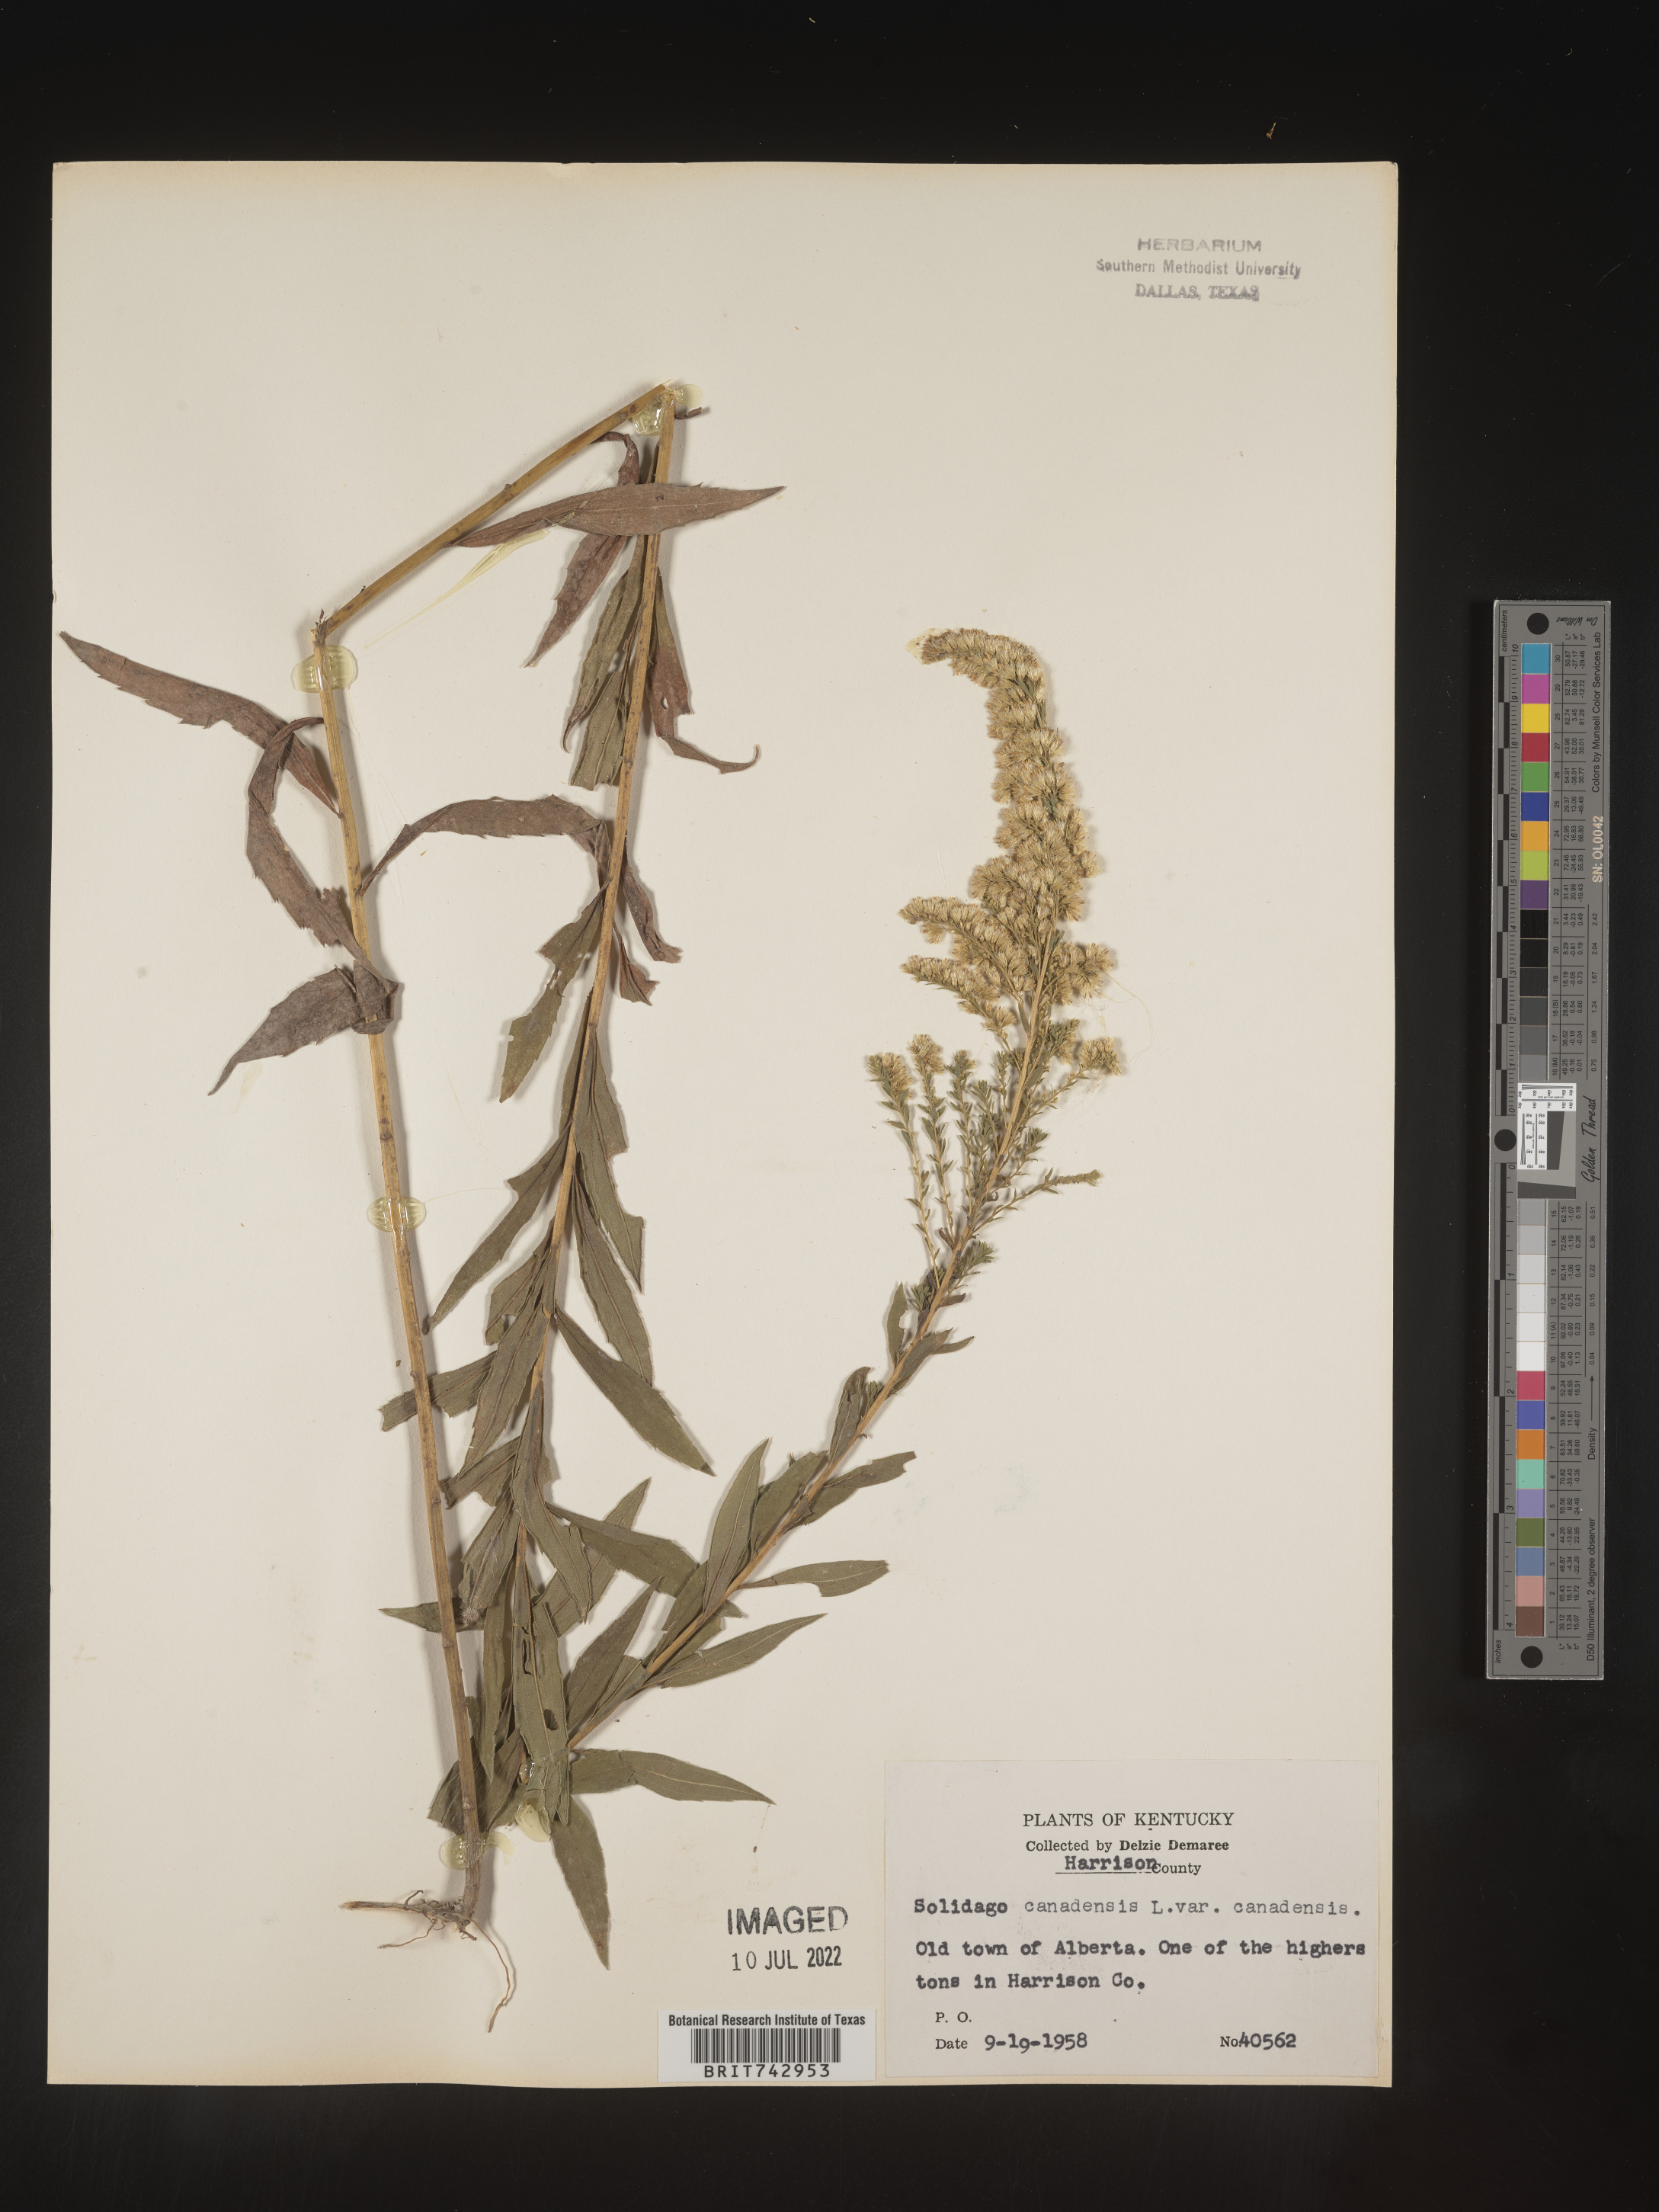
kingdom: Plantae
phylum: Tracheophyta
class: Magnoliopsida
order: Asterales
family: Asteraceae
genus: Solidago
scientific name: Solidago altissima
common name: Late goldenrod
